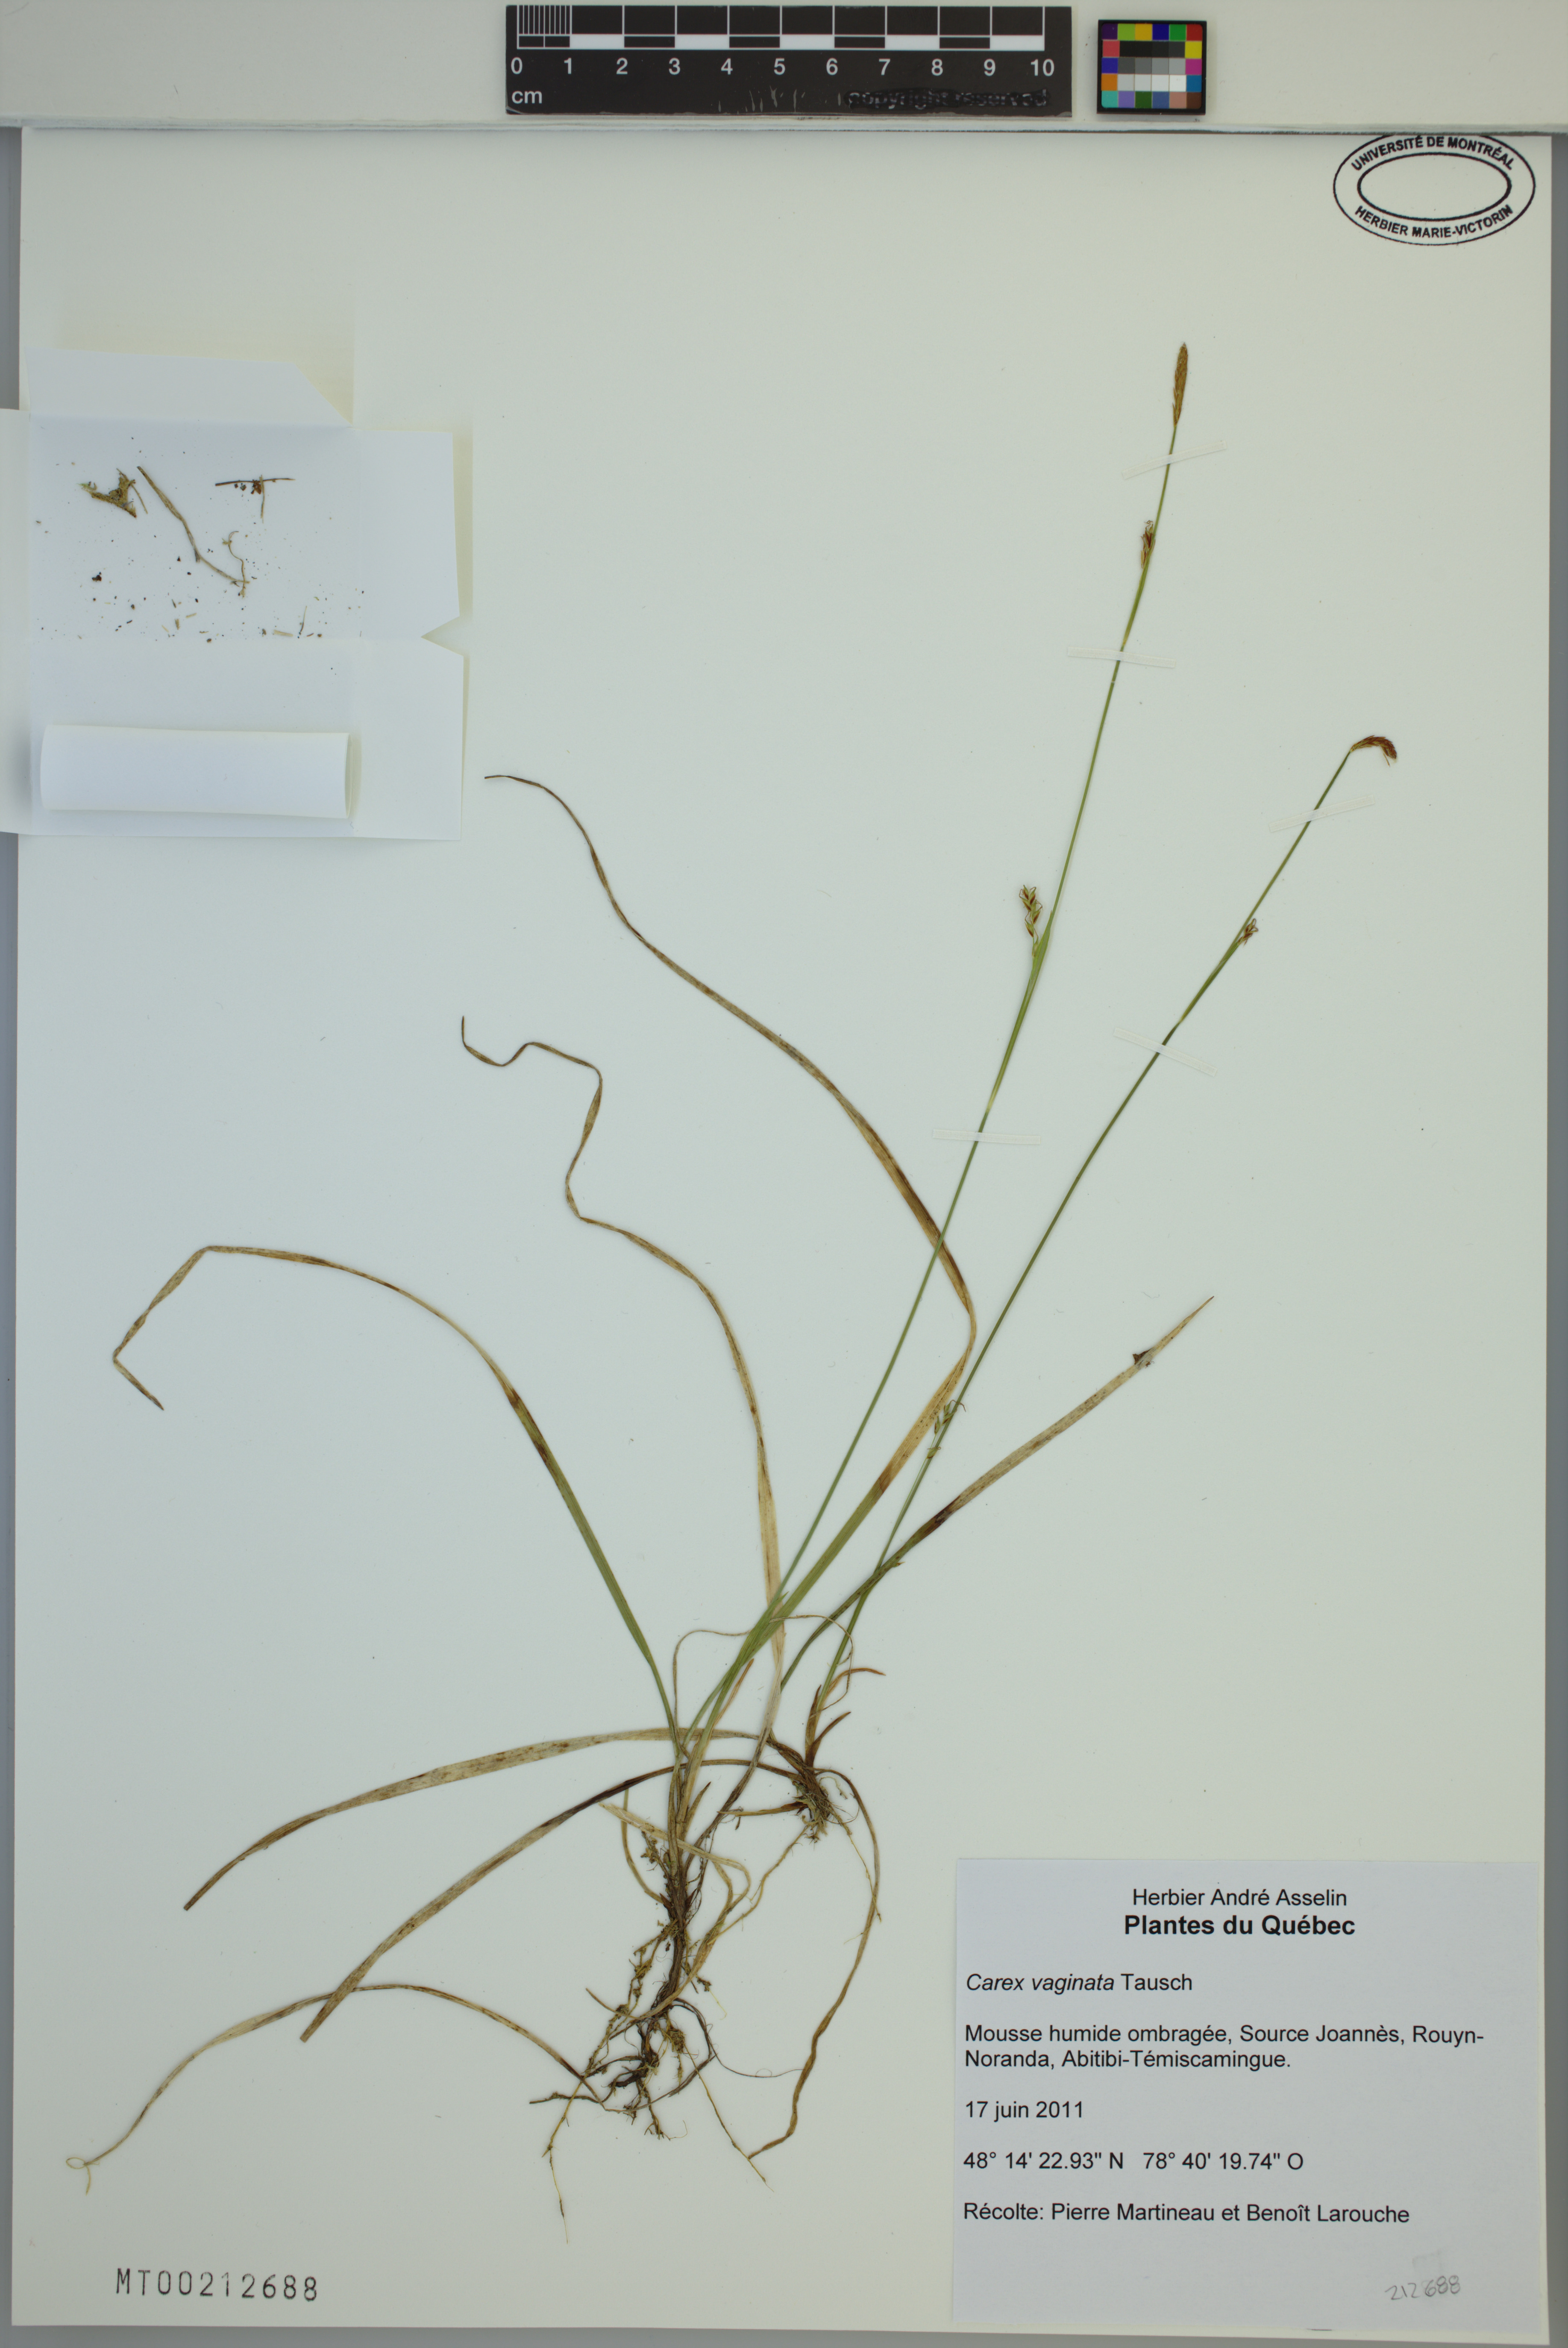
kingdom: Plantae
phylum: Tracheophyta
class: Liliopsida
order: Poales
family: Cyperaceae
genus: Carex
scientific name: Carex vaginata
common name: Sheathed sedge
